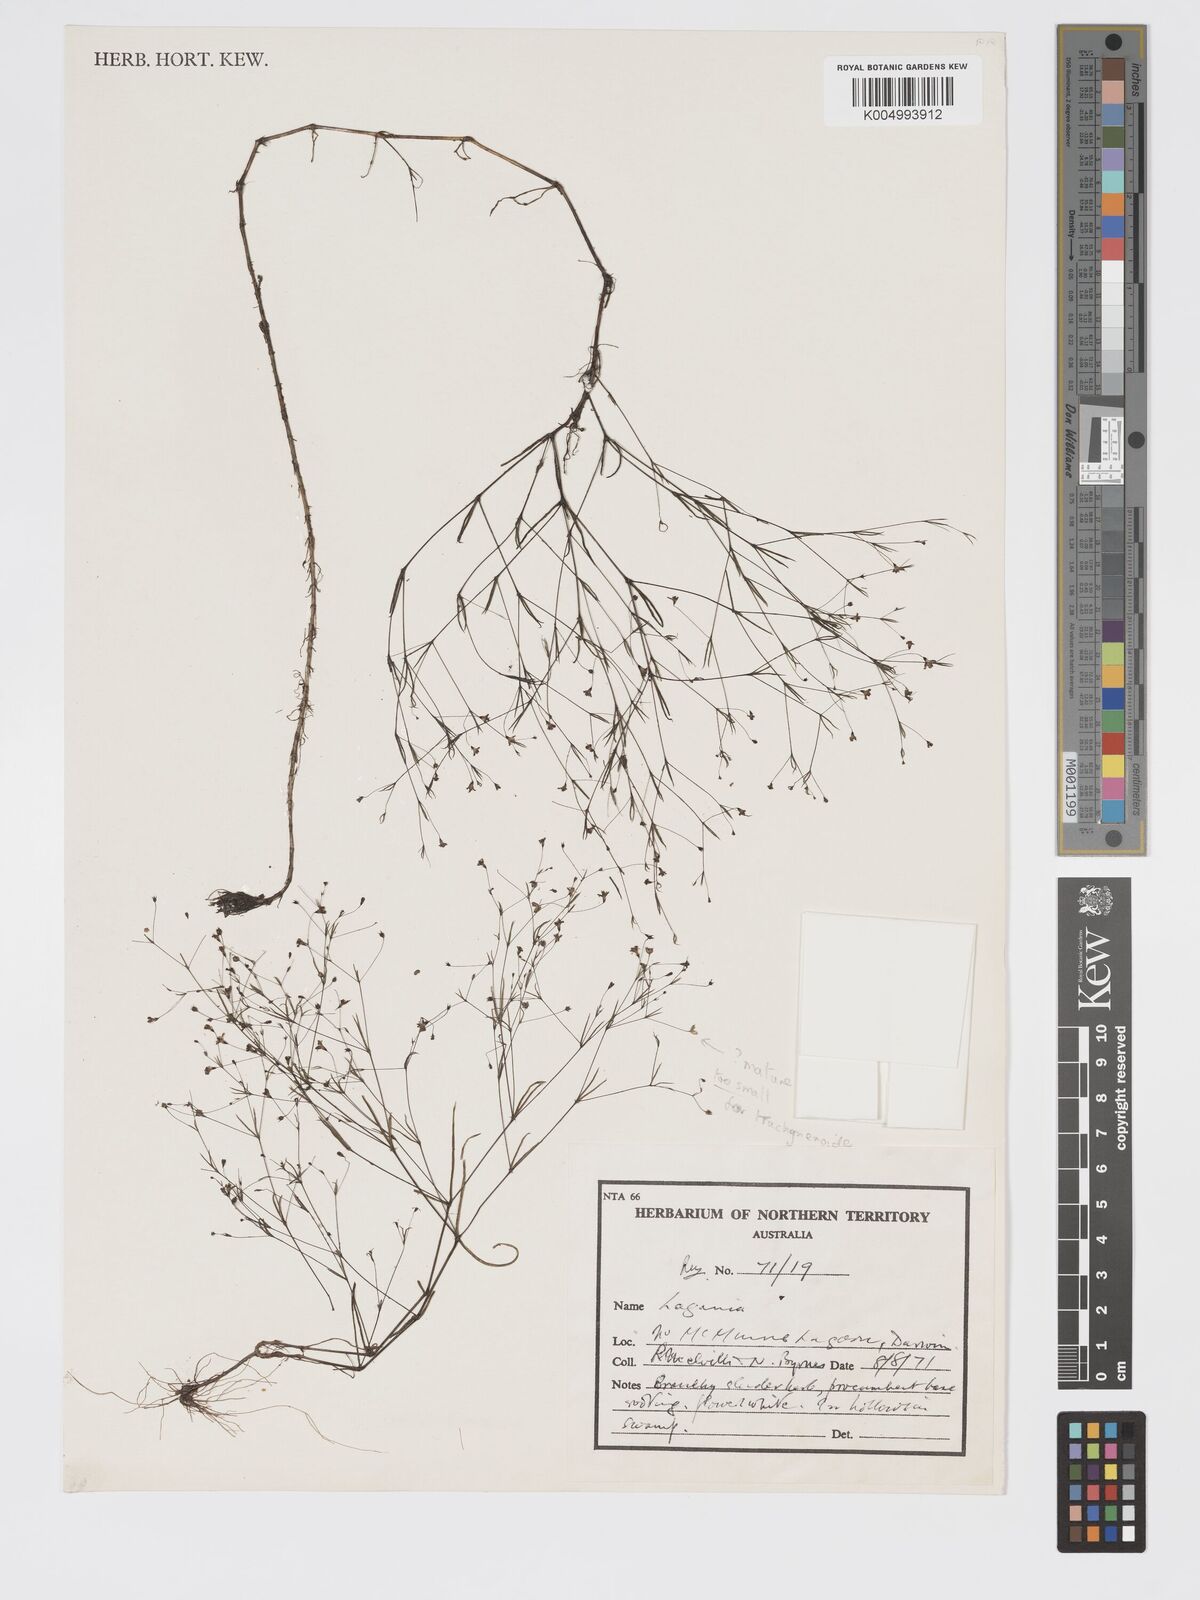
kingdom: Plantae
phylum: Tracheophyta
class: Magnoliopsida
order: Gentianales
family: Rubiaceae
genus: Oldenlandia
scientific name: Oldenlandia
